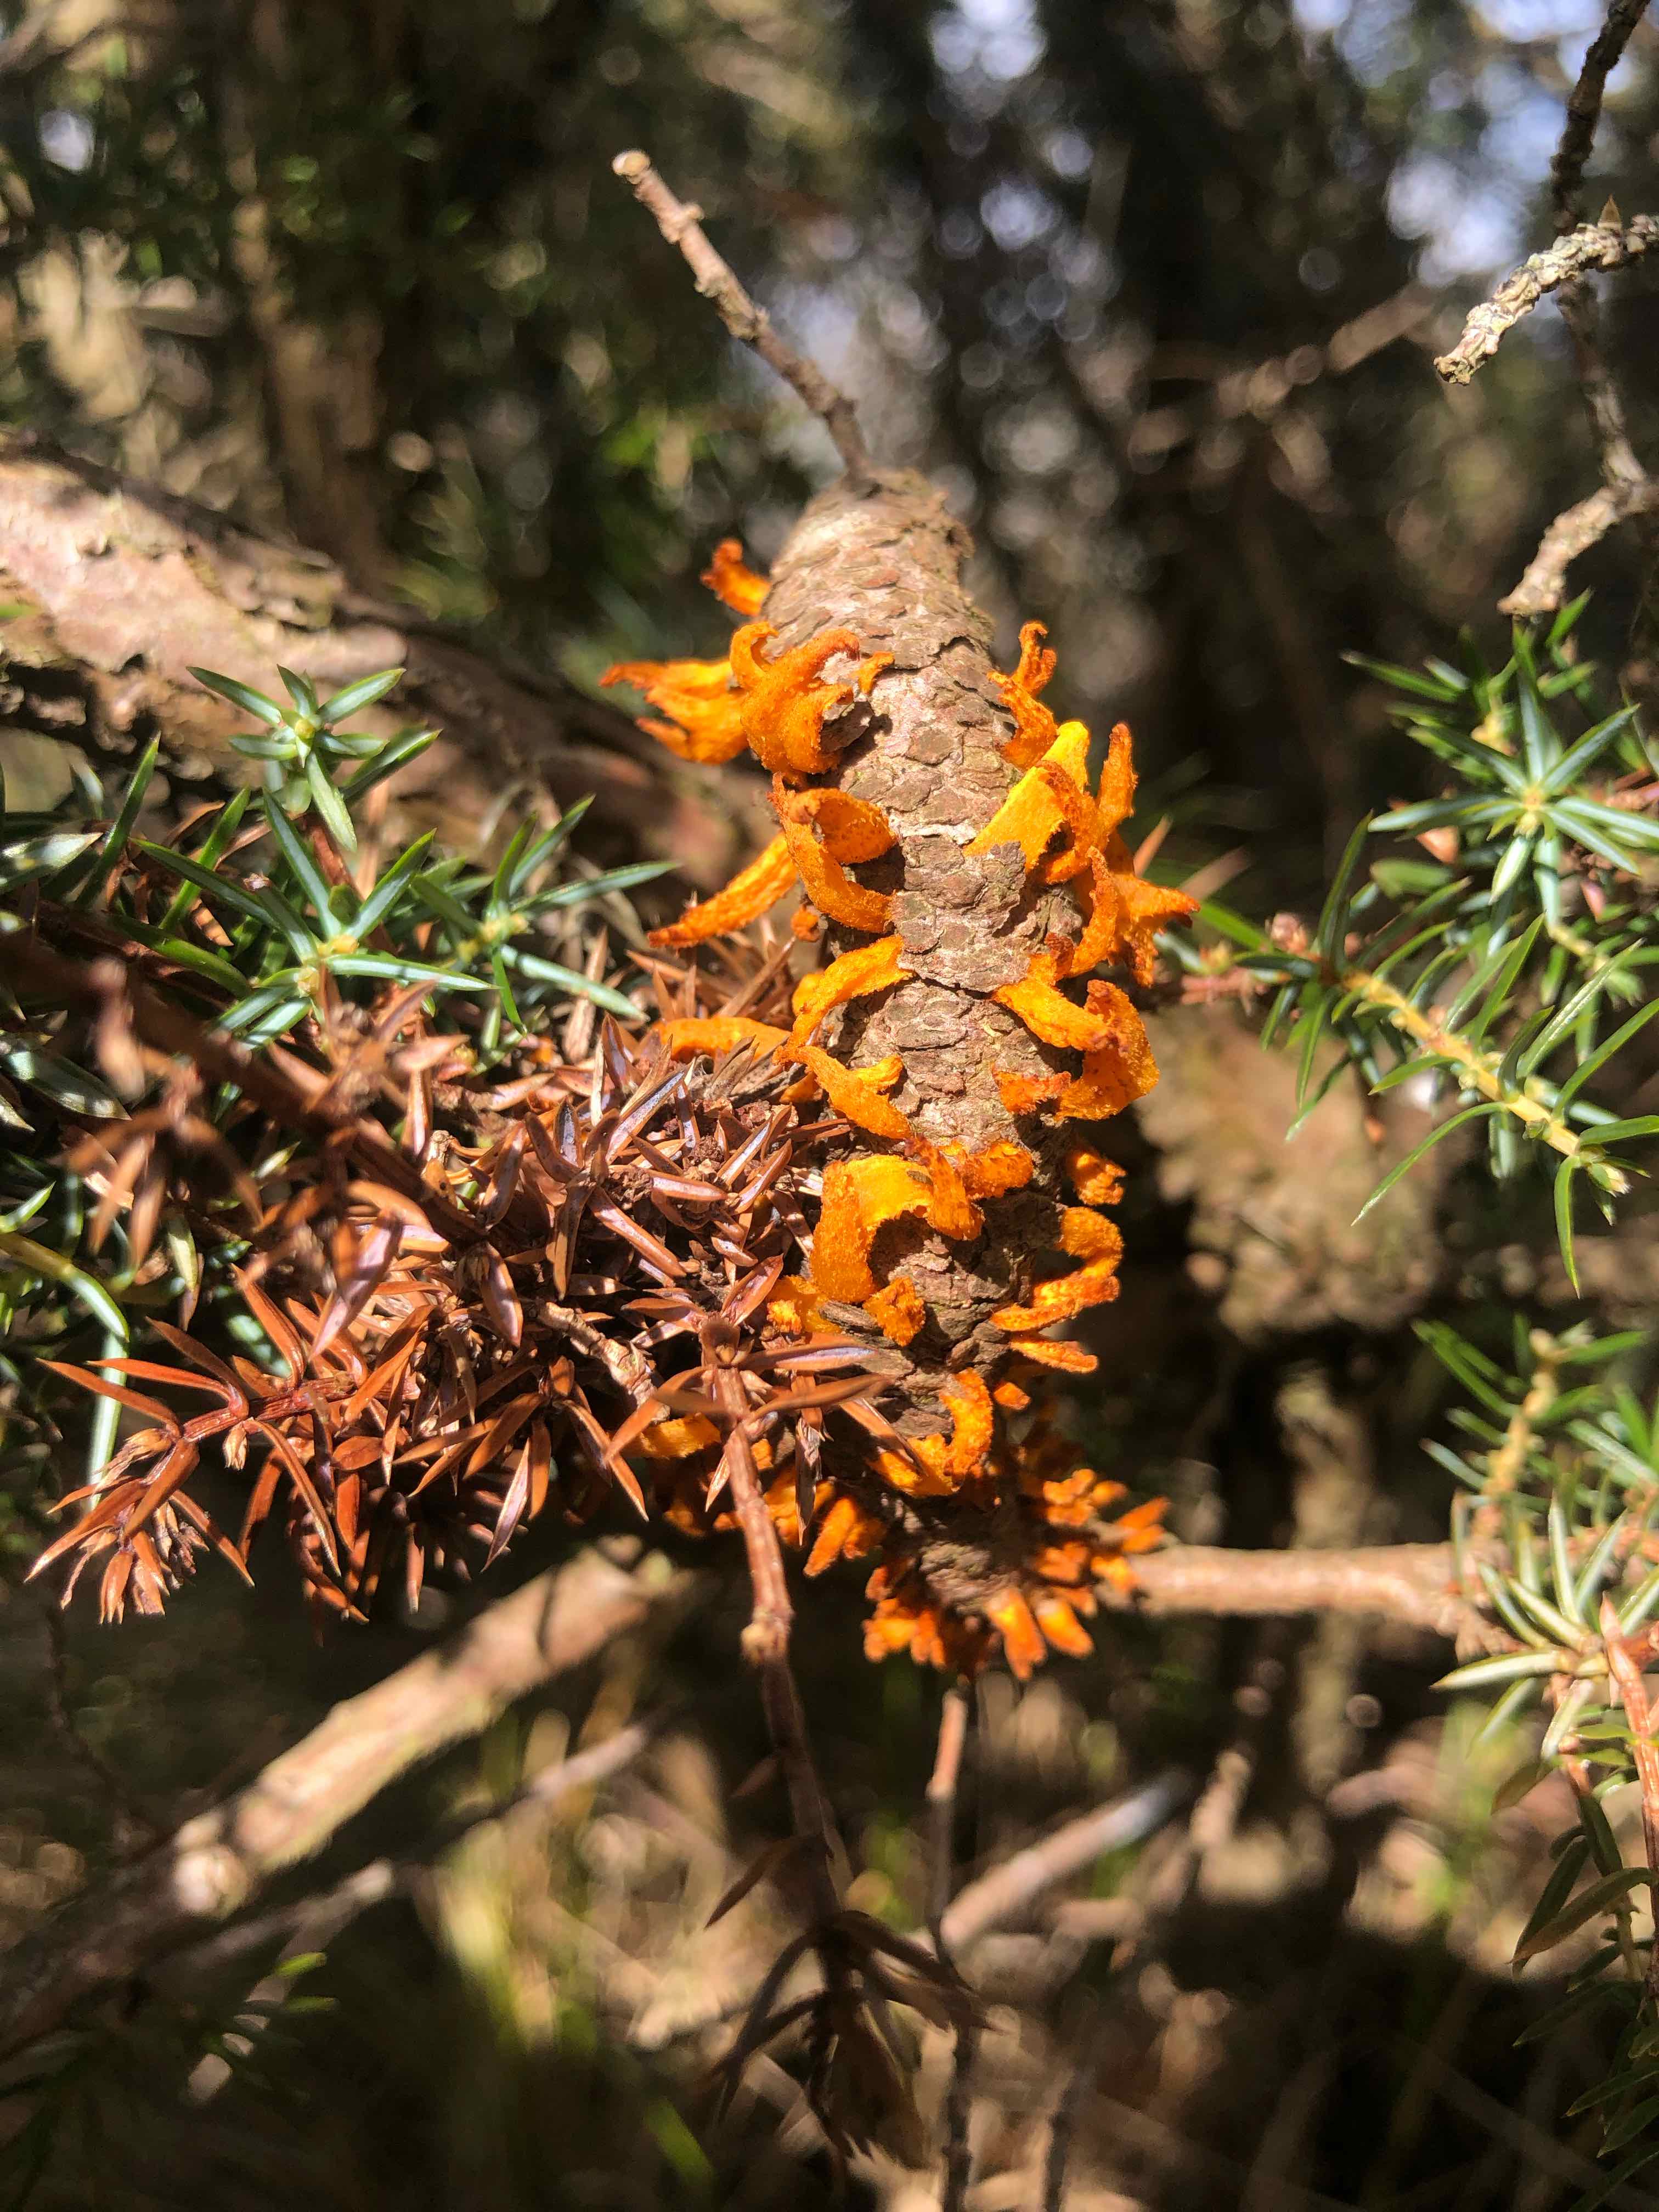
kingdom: Fungi
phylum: Basidiomycota
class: Pucciniomycetes
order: Pucciniales
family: Gymnosporangiaceae
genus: Gymnosporangium
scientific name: Gymnosporangium clavariiforme
